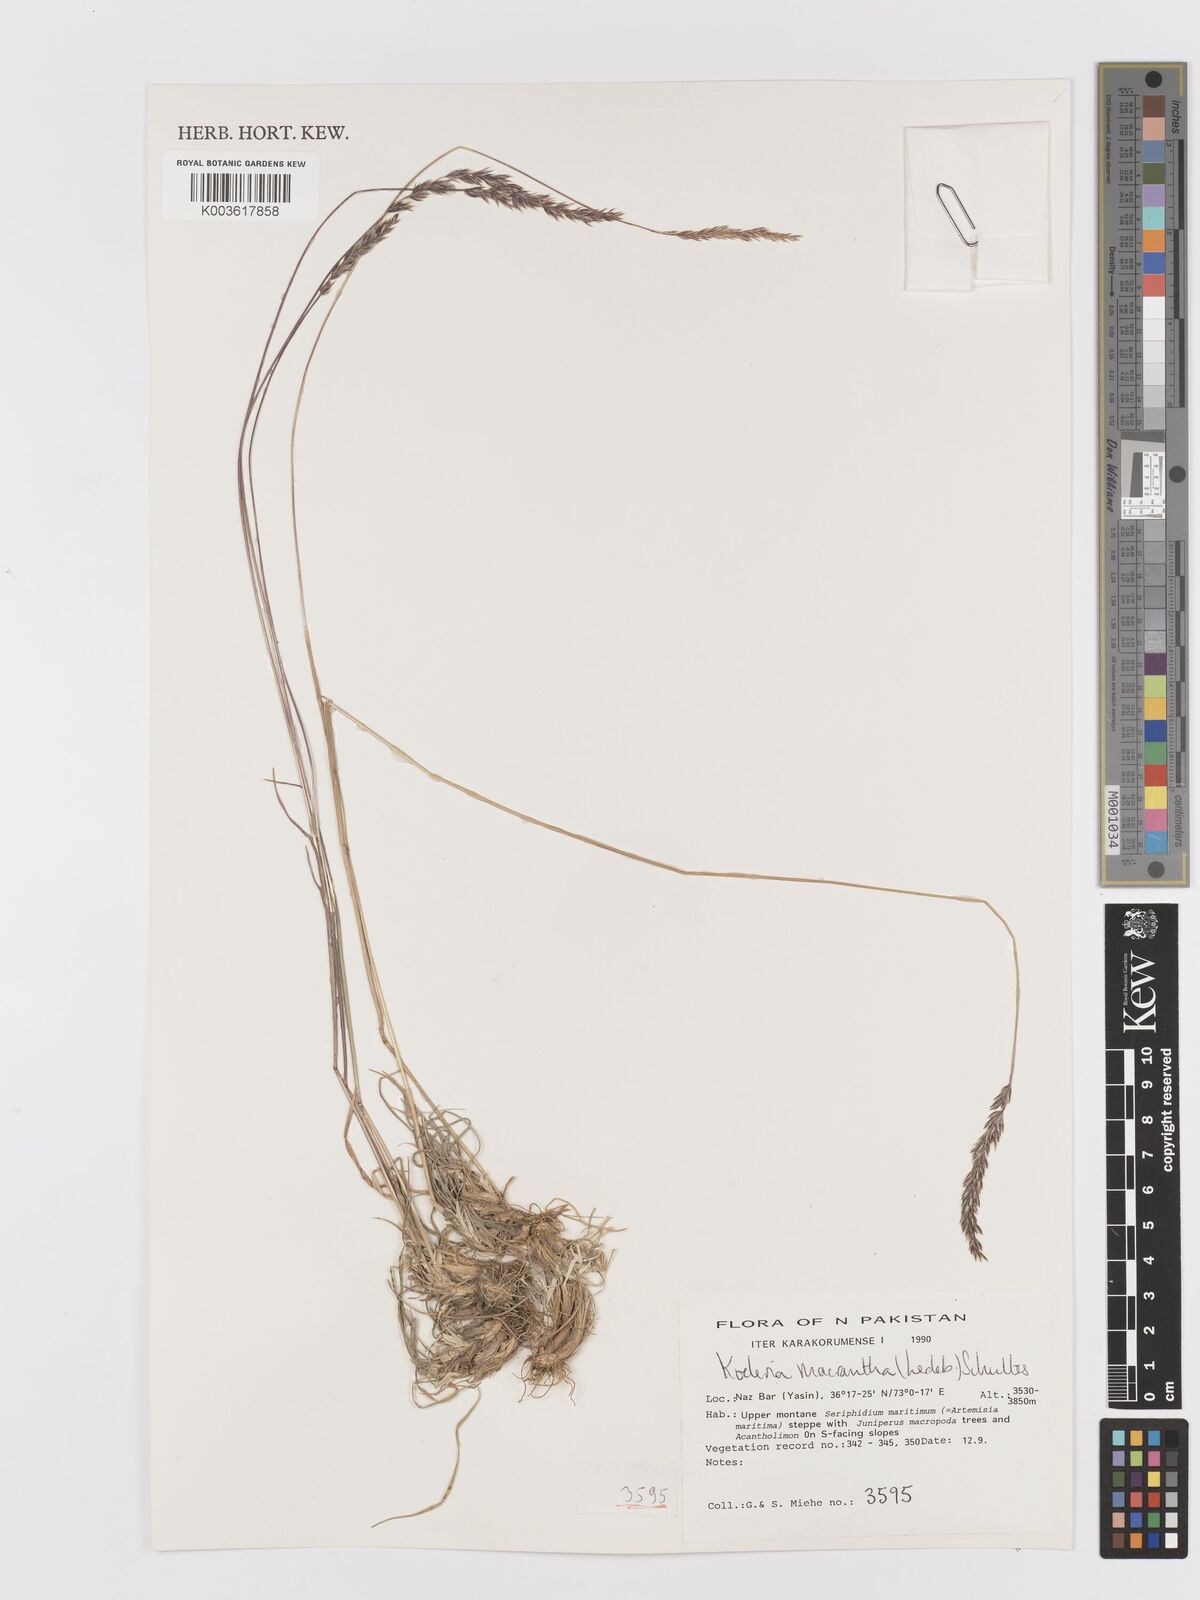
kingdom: Plantae
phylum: Tracheophyta
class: Liliopsida
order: Poales
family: Poaceae
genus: Koeleria
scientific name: Koeleria macrantha
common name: Crested hair-grass
